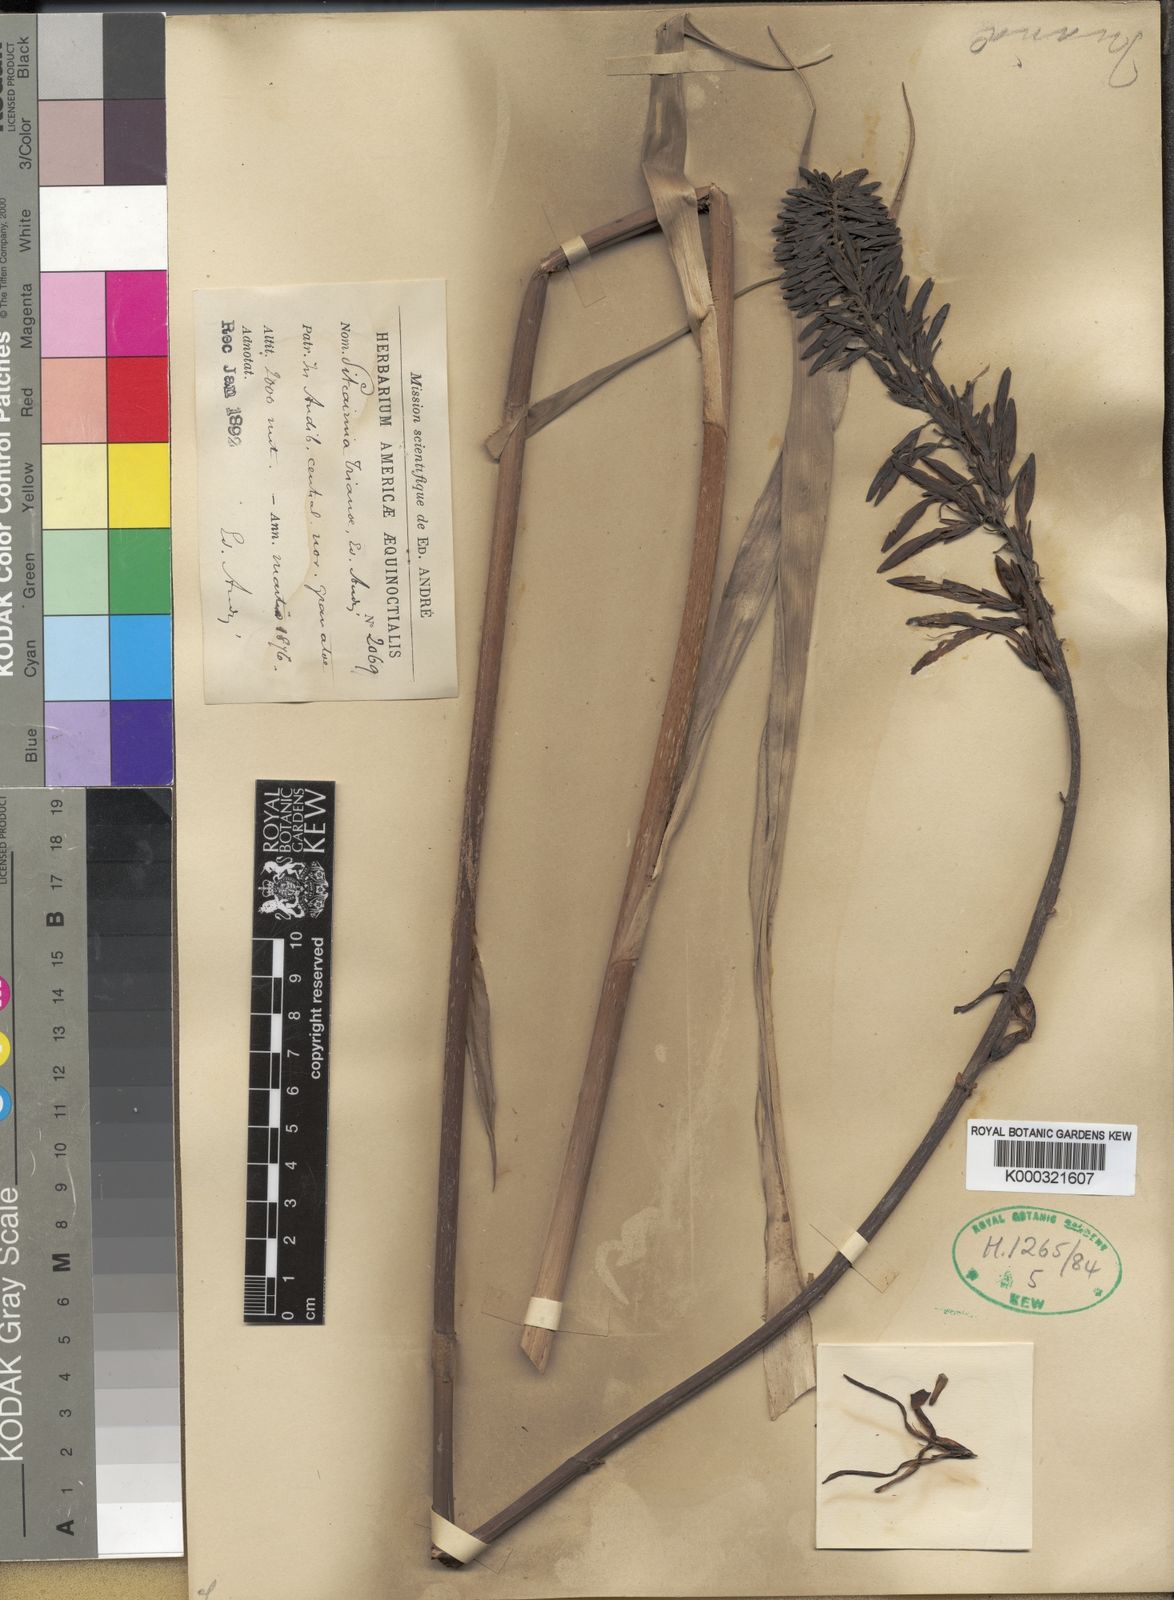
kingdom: Plantae
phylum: Tracheophyta
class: Liliopsida
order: Poales
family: Bromeliaceae
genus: Pitcairnia
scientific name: Pitcairnia trianae
